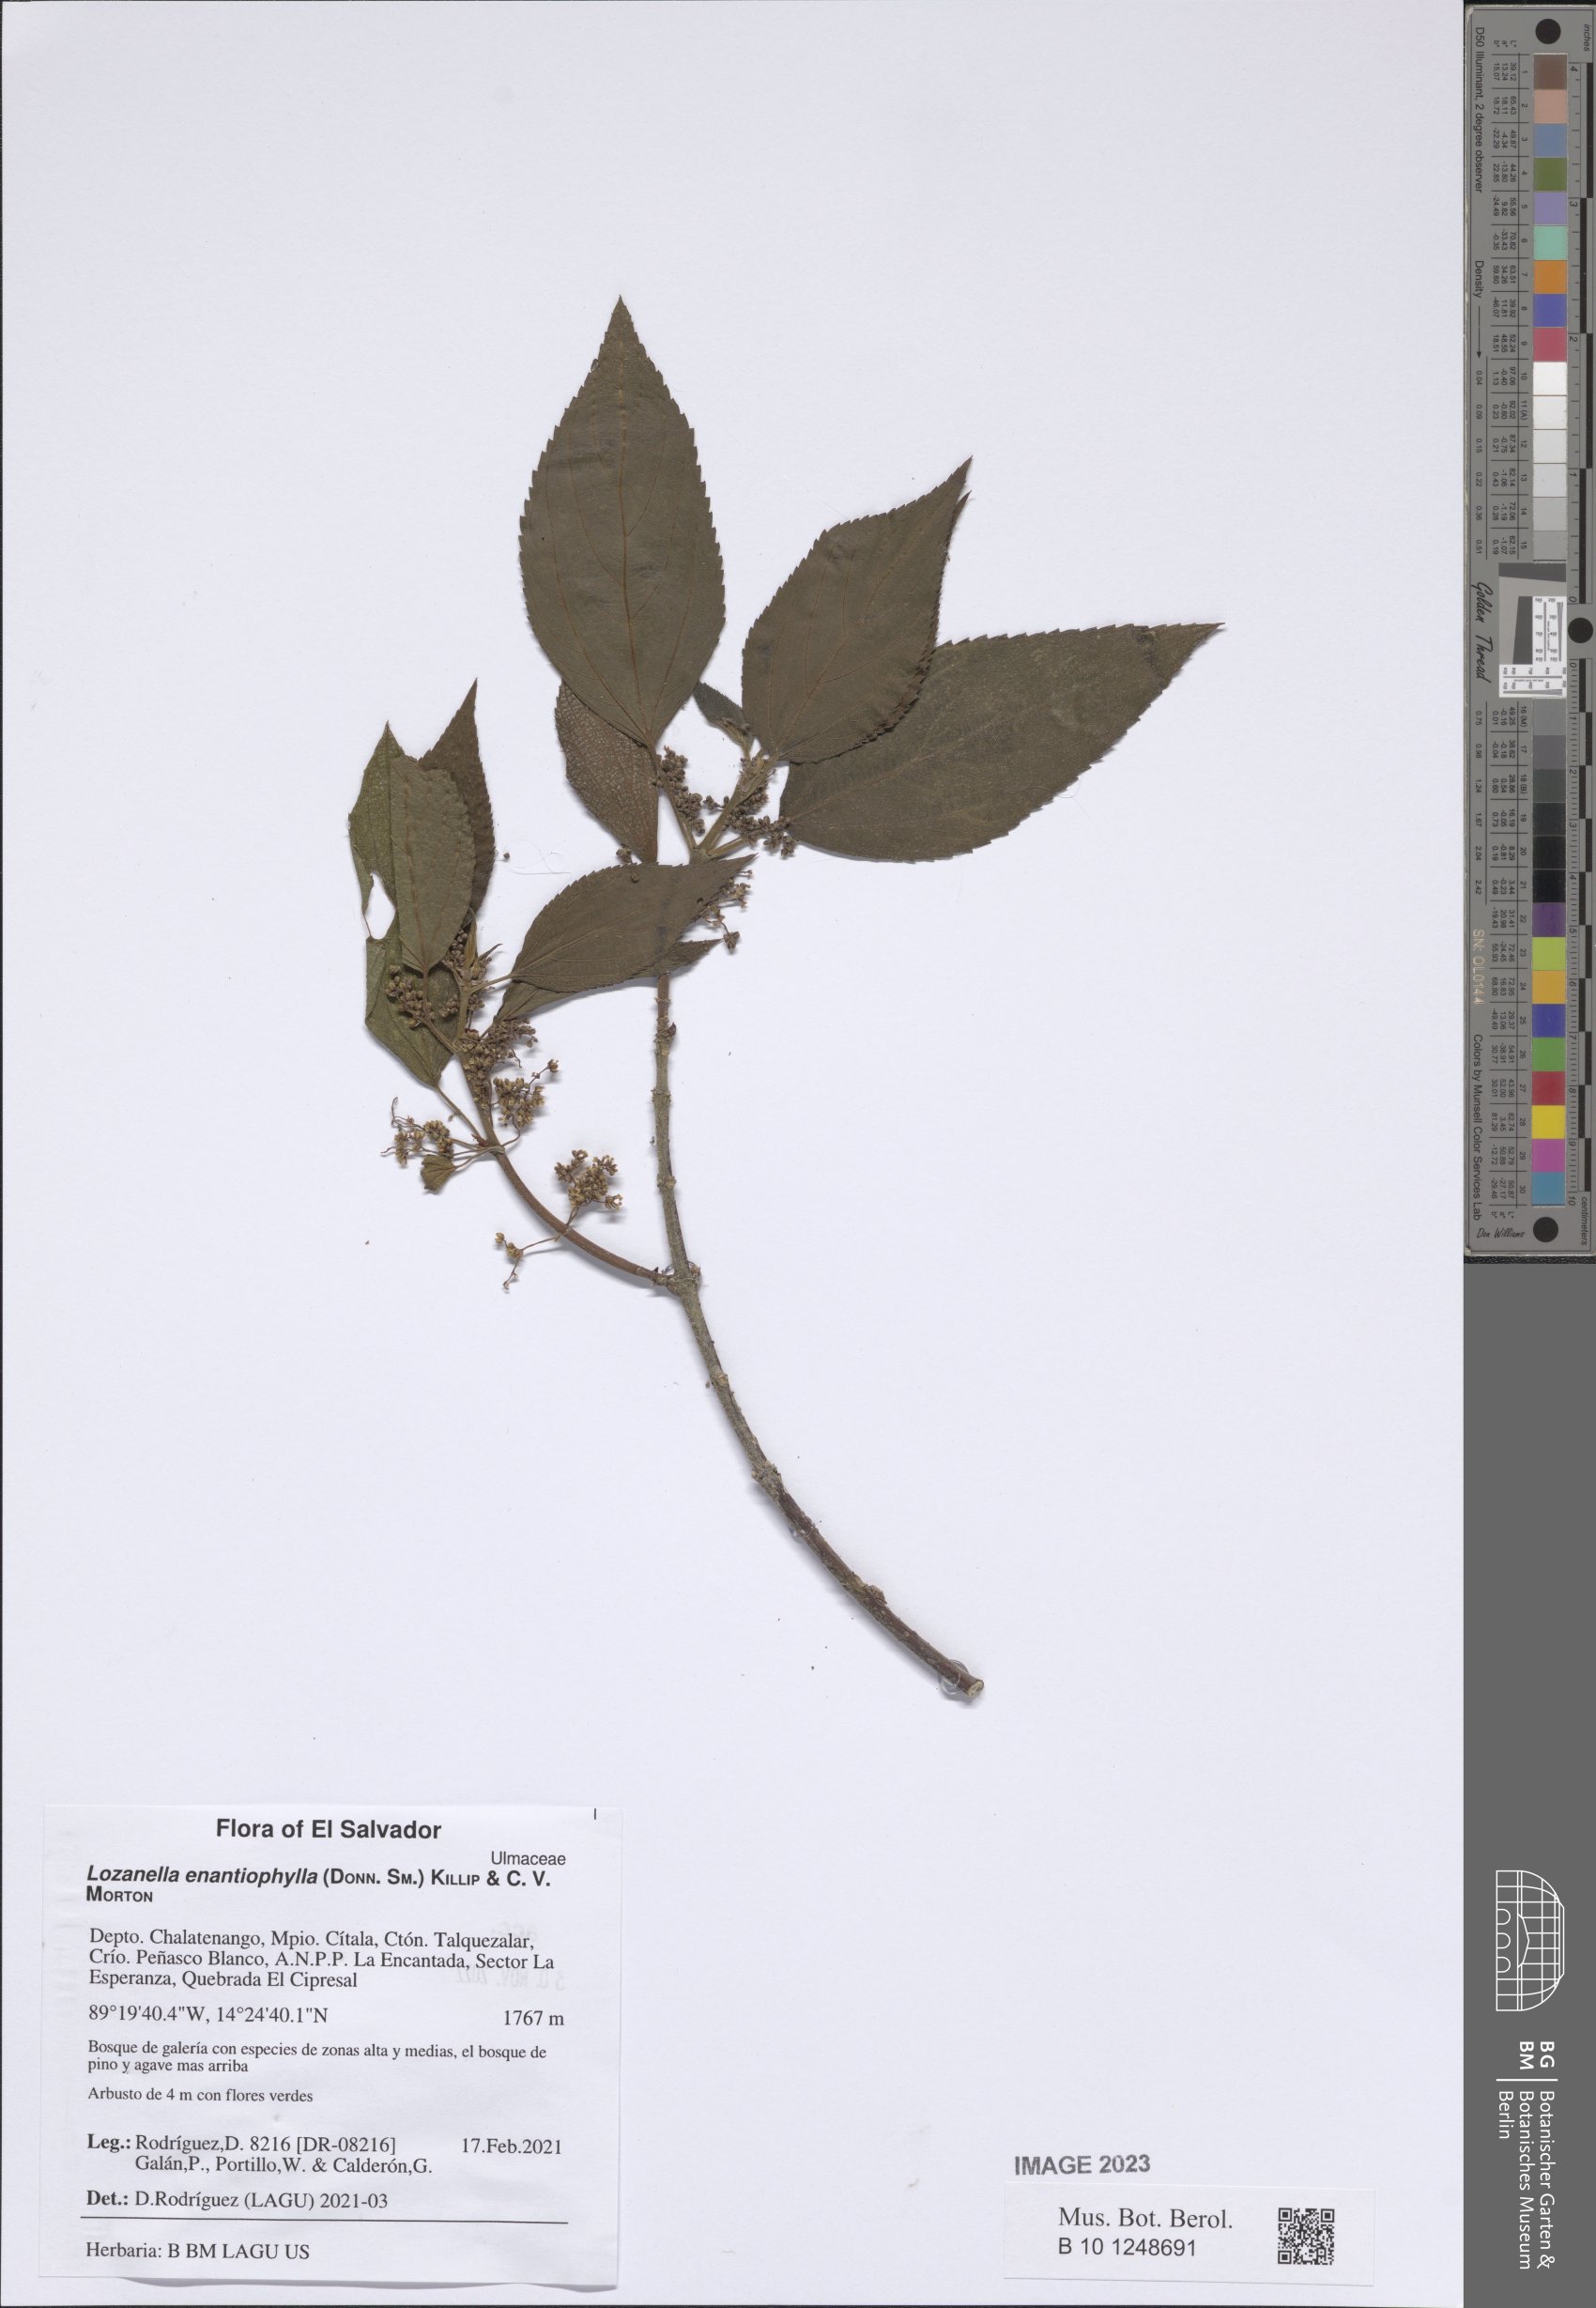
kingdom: Plantae
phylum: Tracheophyta
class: Magnoliopsida
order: Rosales
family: Cannabaceae
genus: Lozanella
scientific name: Lozanella enantiophylla
